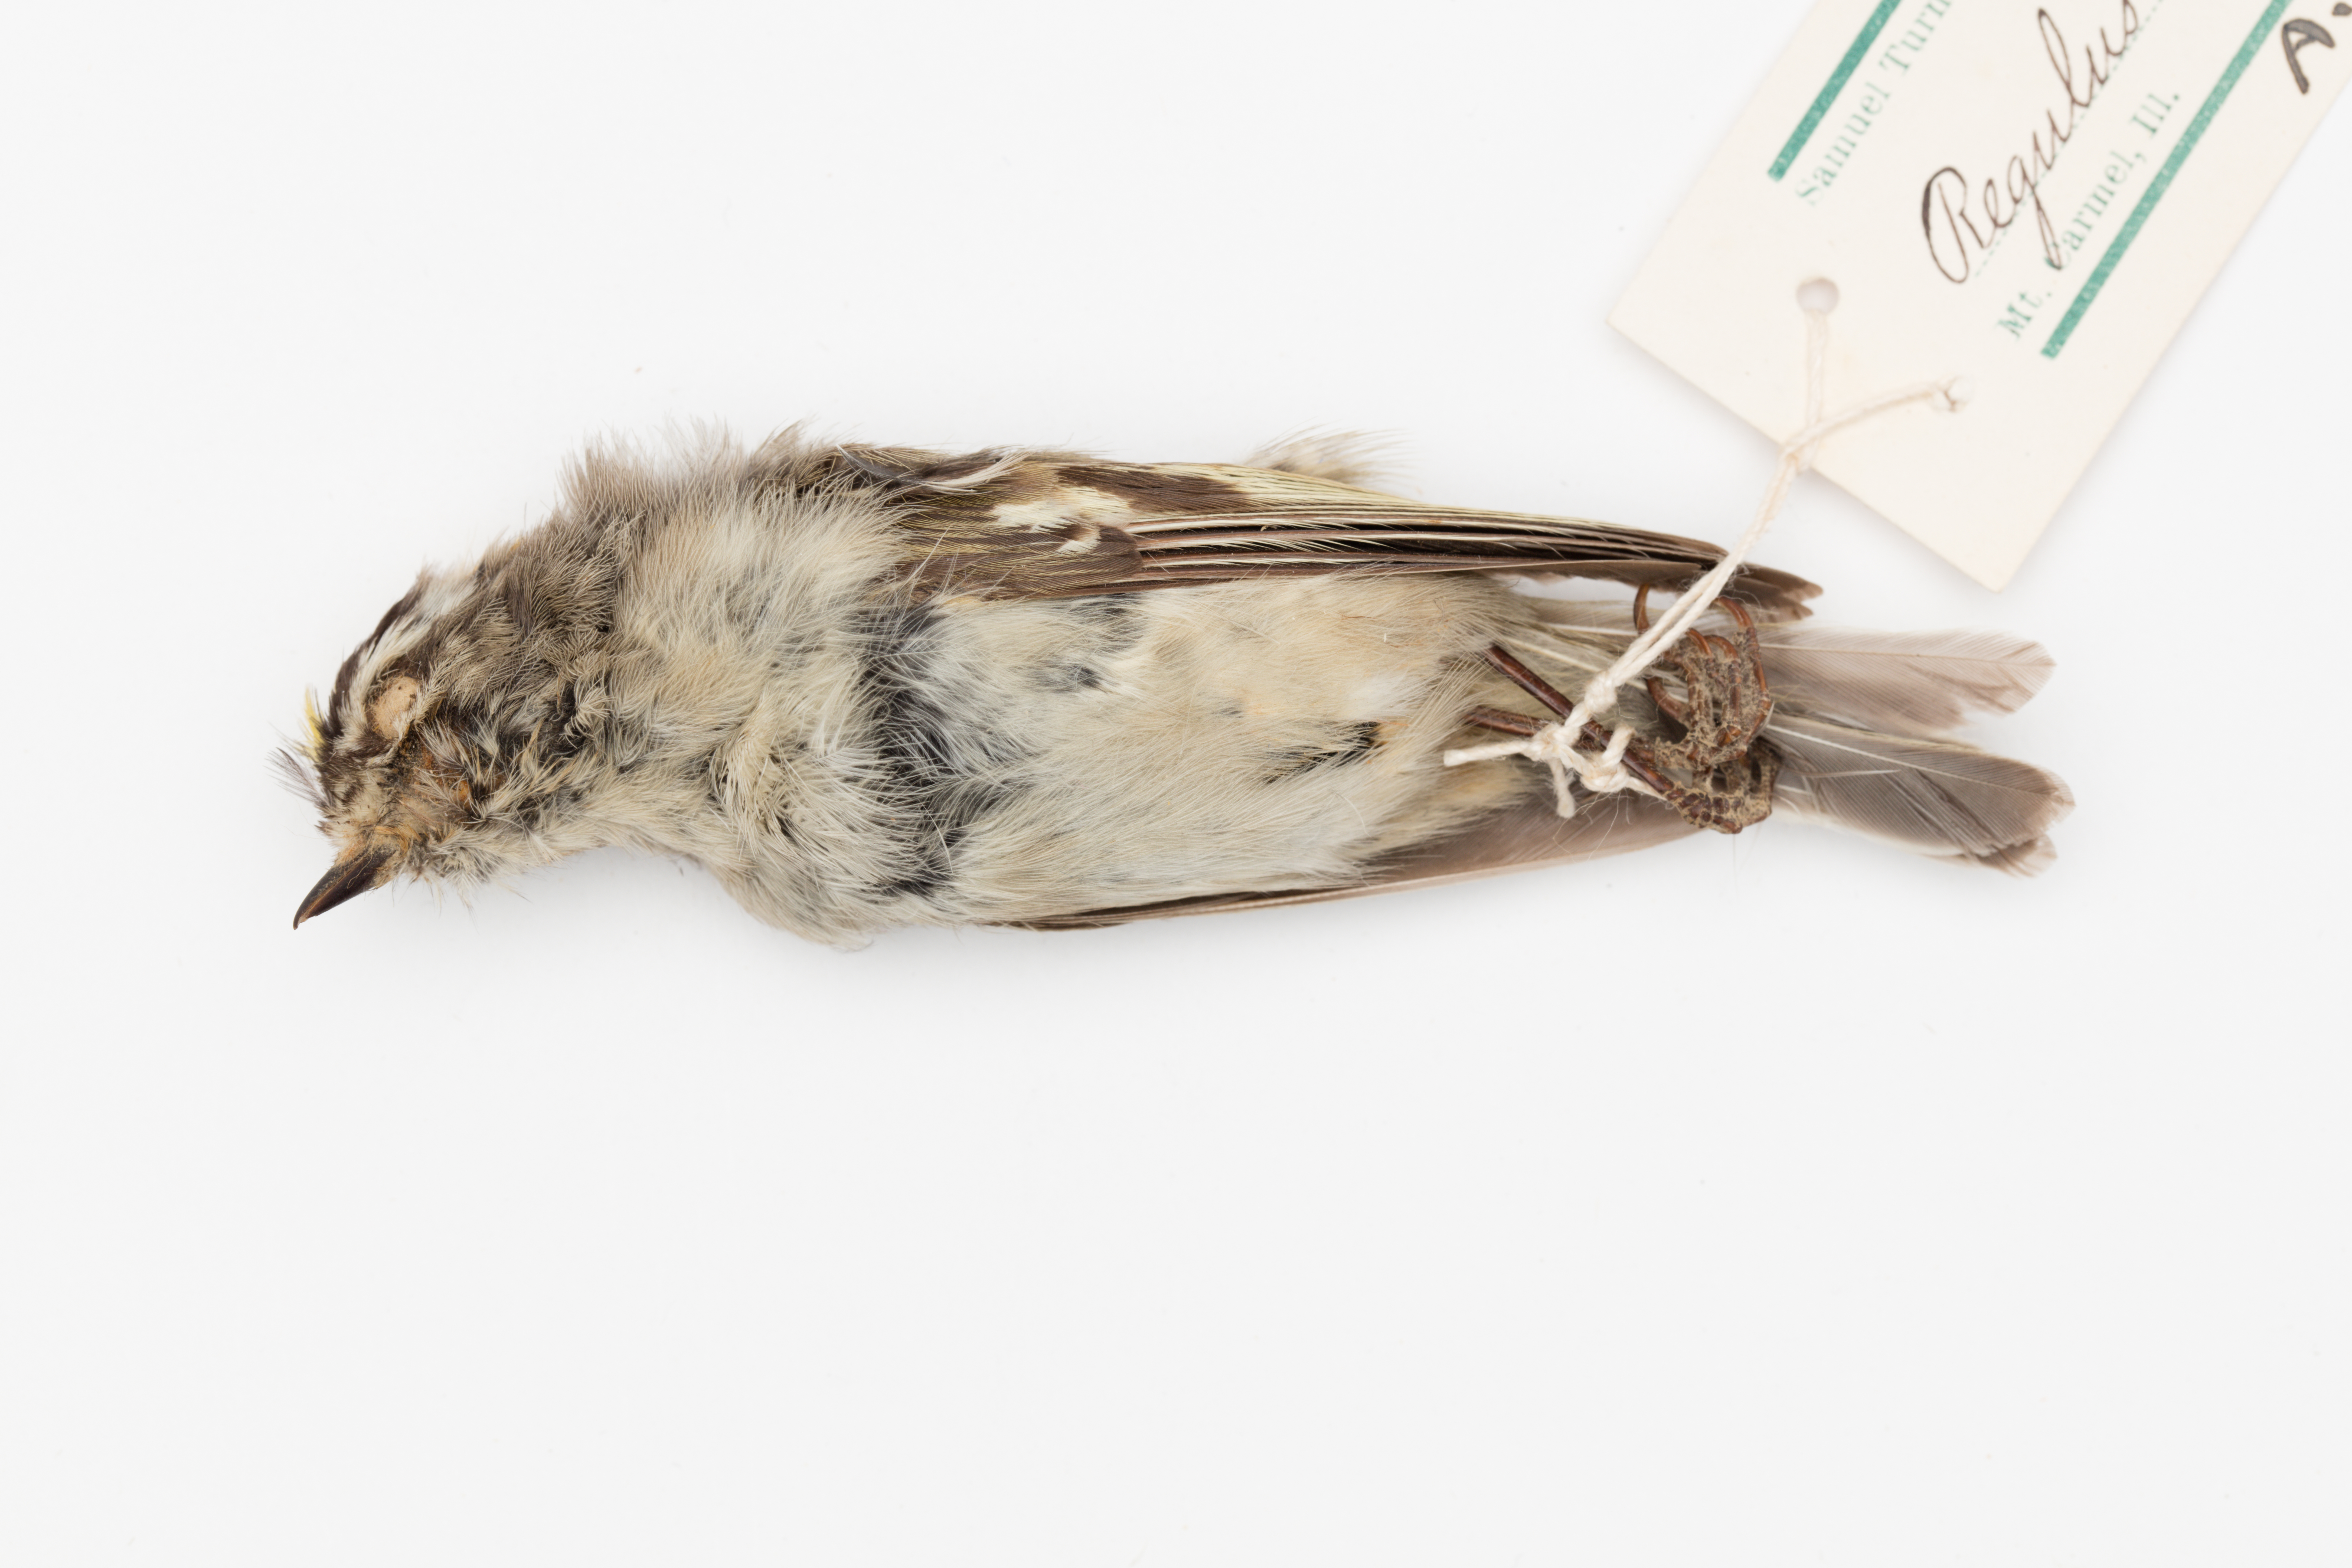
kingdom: Animalia
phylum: Chordata
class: Aves
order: Passeriformes
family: Regulidae
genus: Regulus
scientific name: Regulus satrapa
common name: Golden-crowned kinglet
